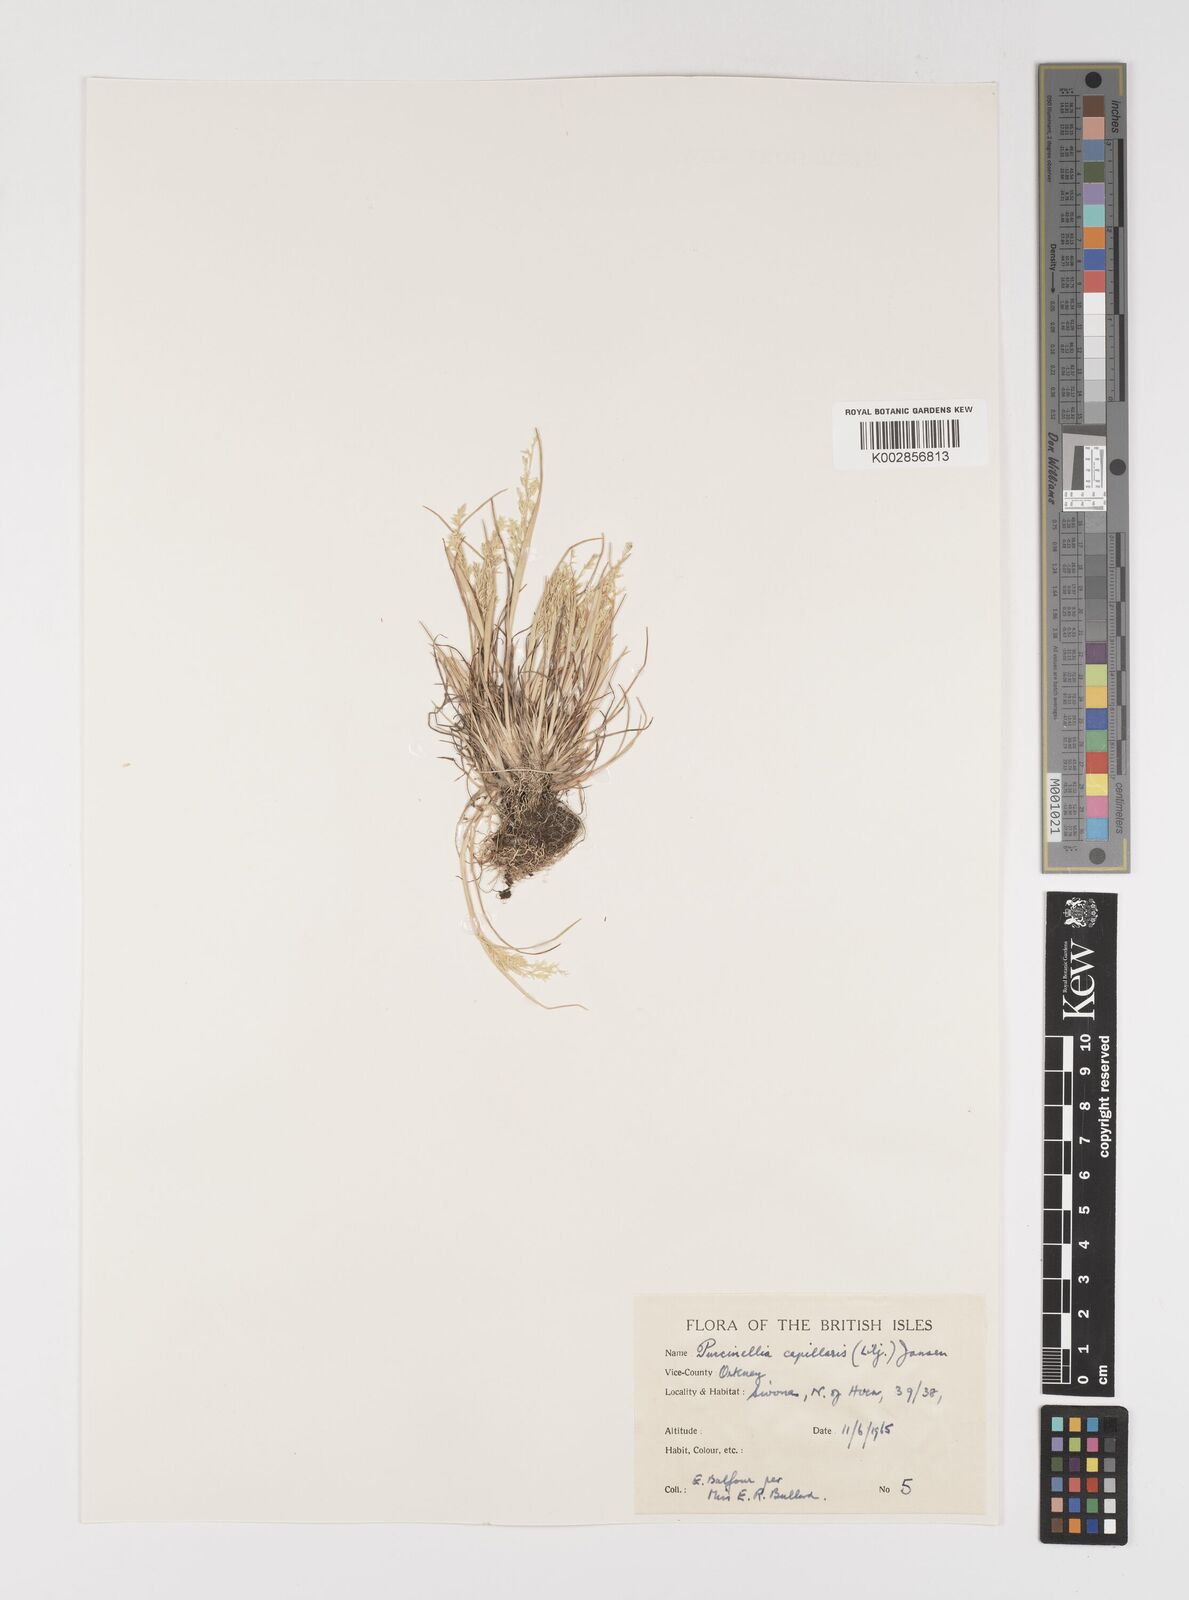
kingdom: Plantae
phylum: Tracheophyta
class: Liliopsida
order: Poales
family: Poaceae
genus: Puccinellia
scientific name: Puccinellia distans
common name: Weeping alkaligrass
